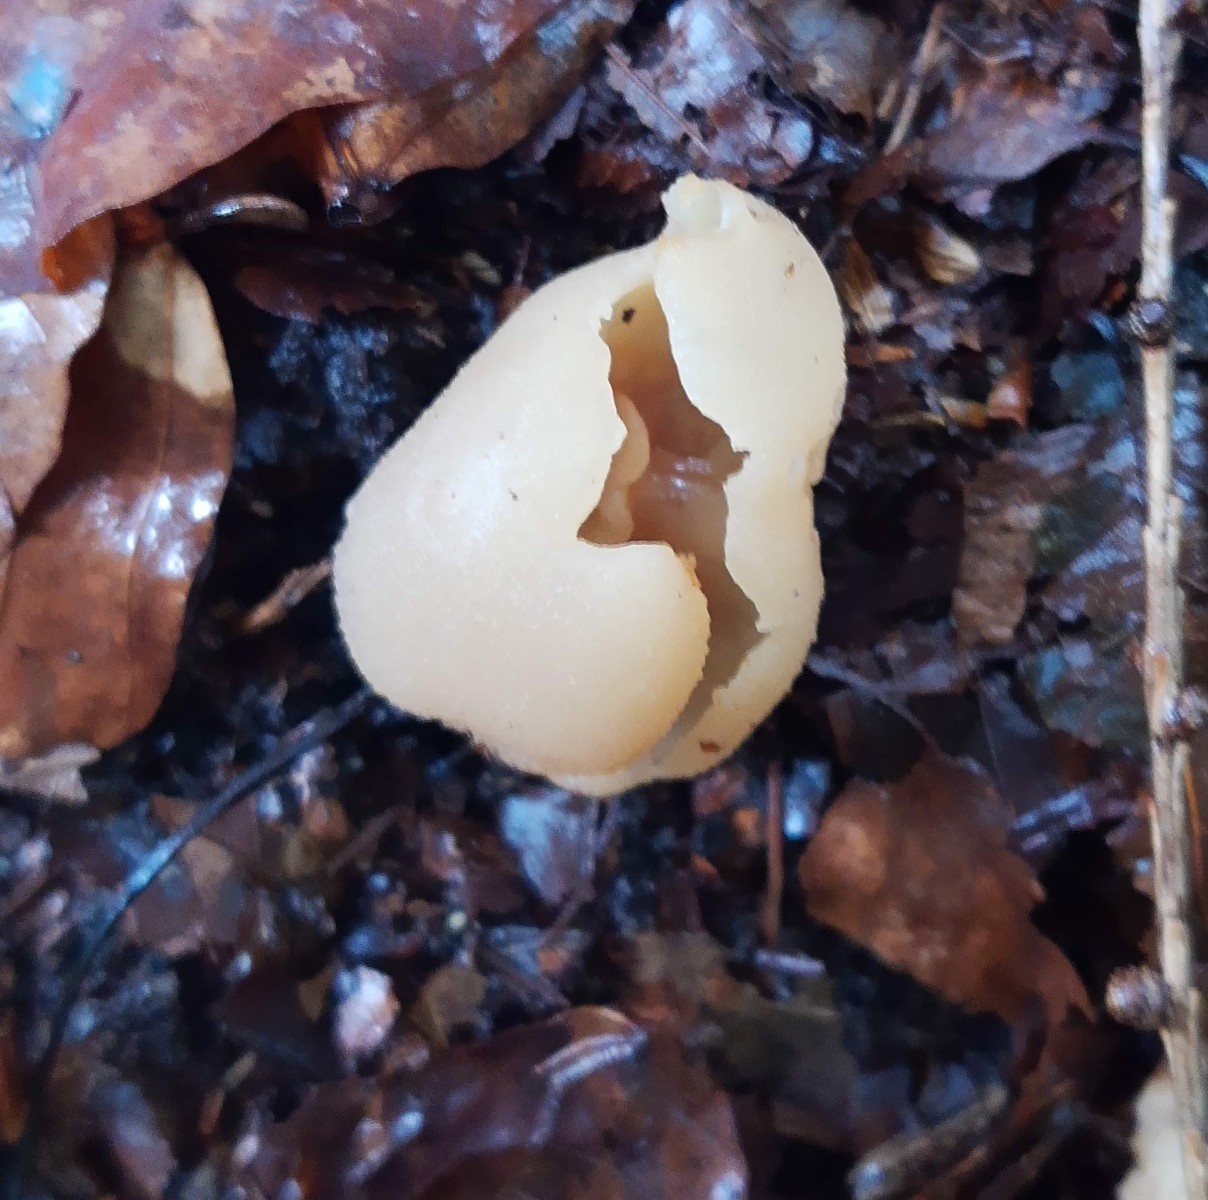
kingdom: Fungi
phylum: Ascomycota
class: Pezizomycetes
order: Pezizales
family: Pezizaceae
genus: Peziza
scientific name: Peziza arvernensis
